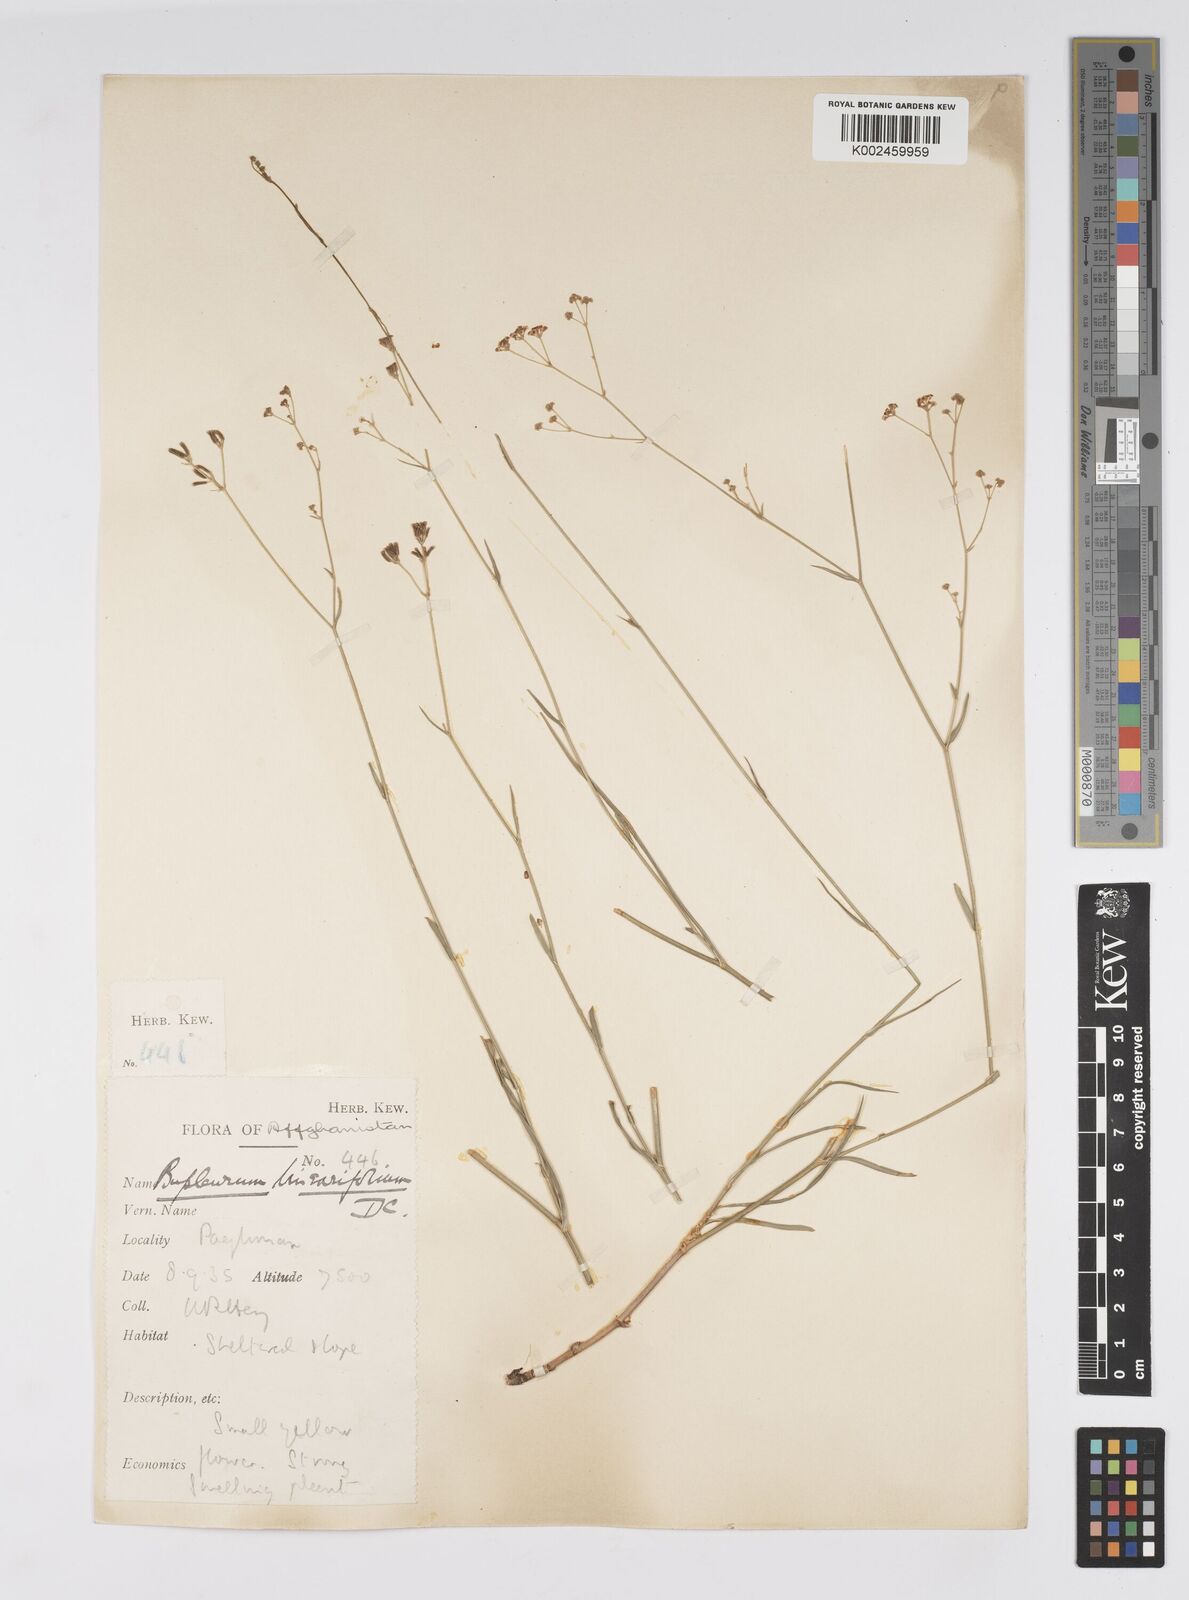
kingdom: Plantae
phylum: Tracheophyta
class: Magnoliopsida
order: Apiales
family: Apiaceae
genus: Bupleurum
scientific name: Bupleurum falcatum
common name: Sickle-leaved hare's-ear
